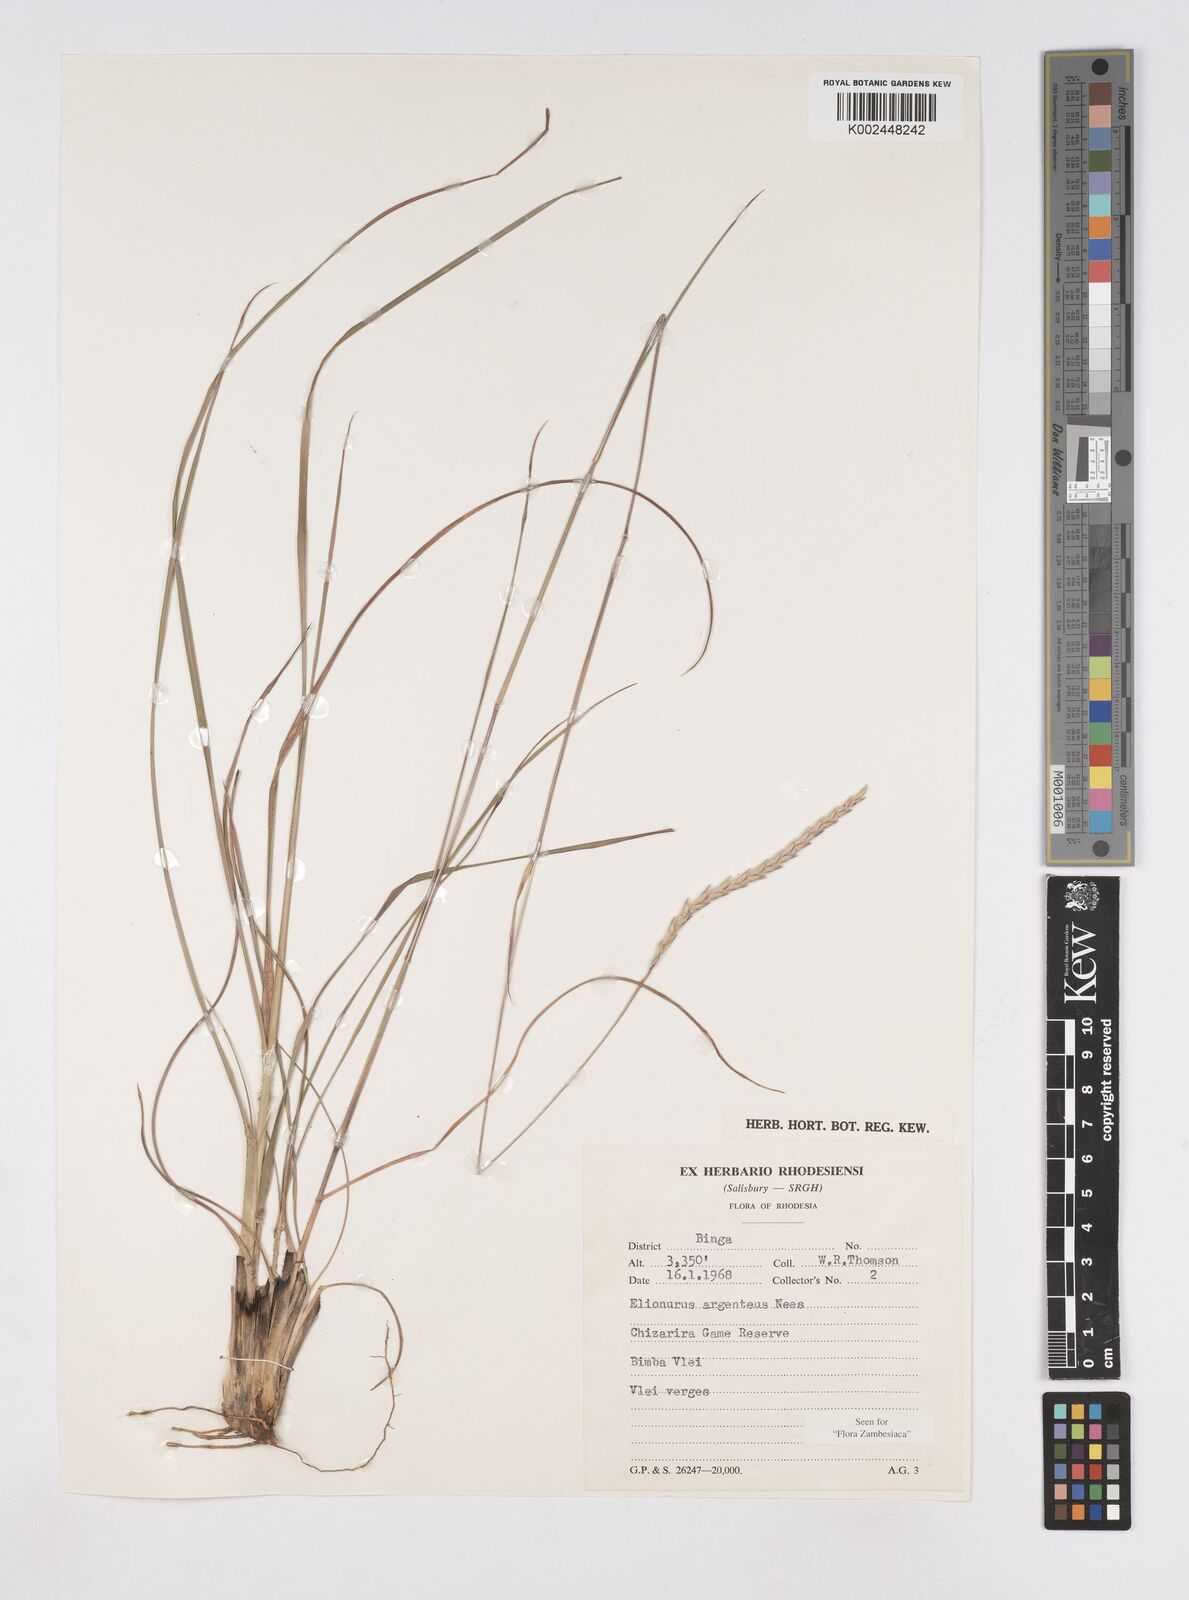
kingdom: Plantae
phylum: Tracheophyta
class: Liliopsida
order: Poales
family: Poaceae
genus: Elionurus
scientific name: Elionurus muticus
